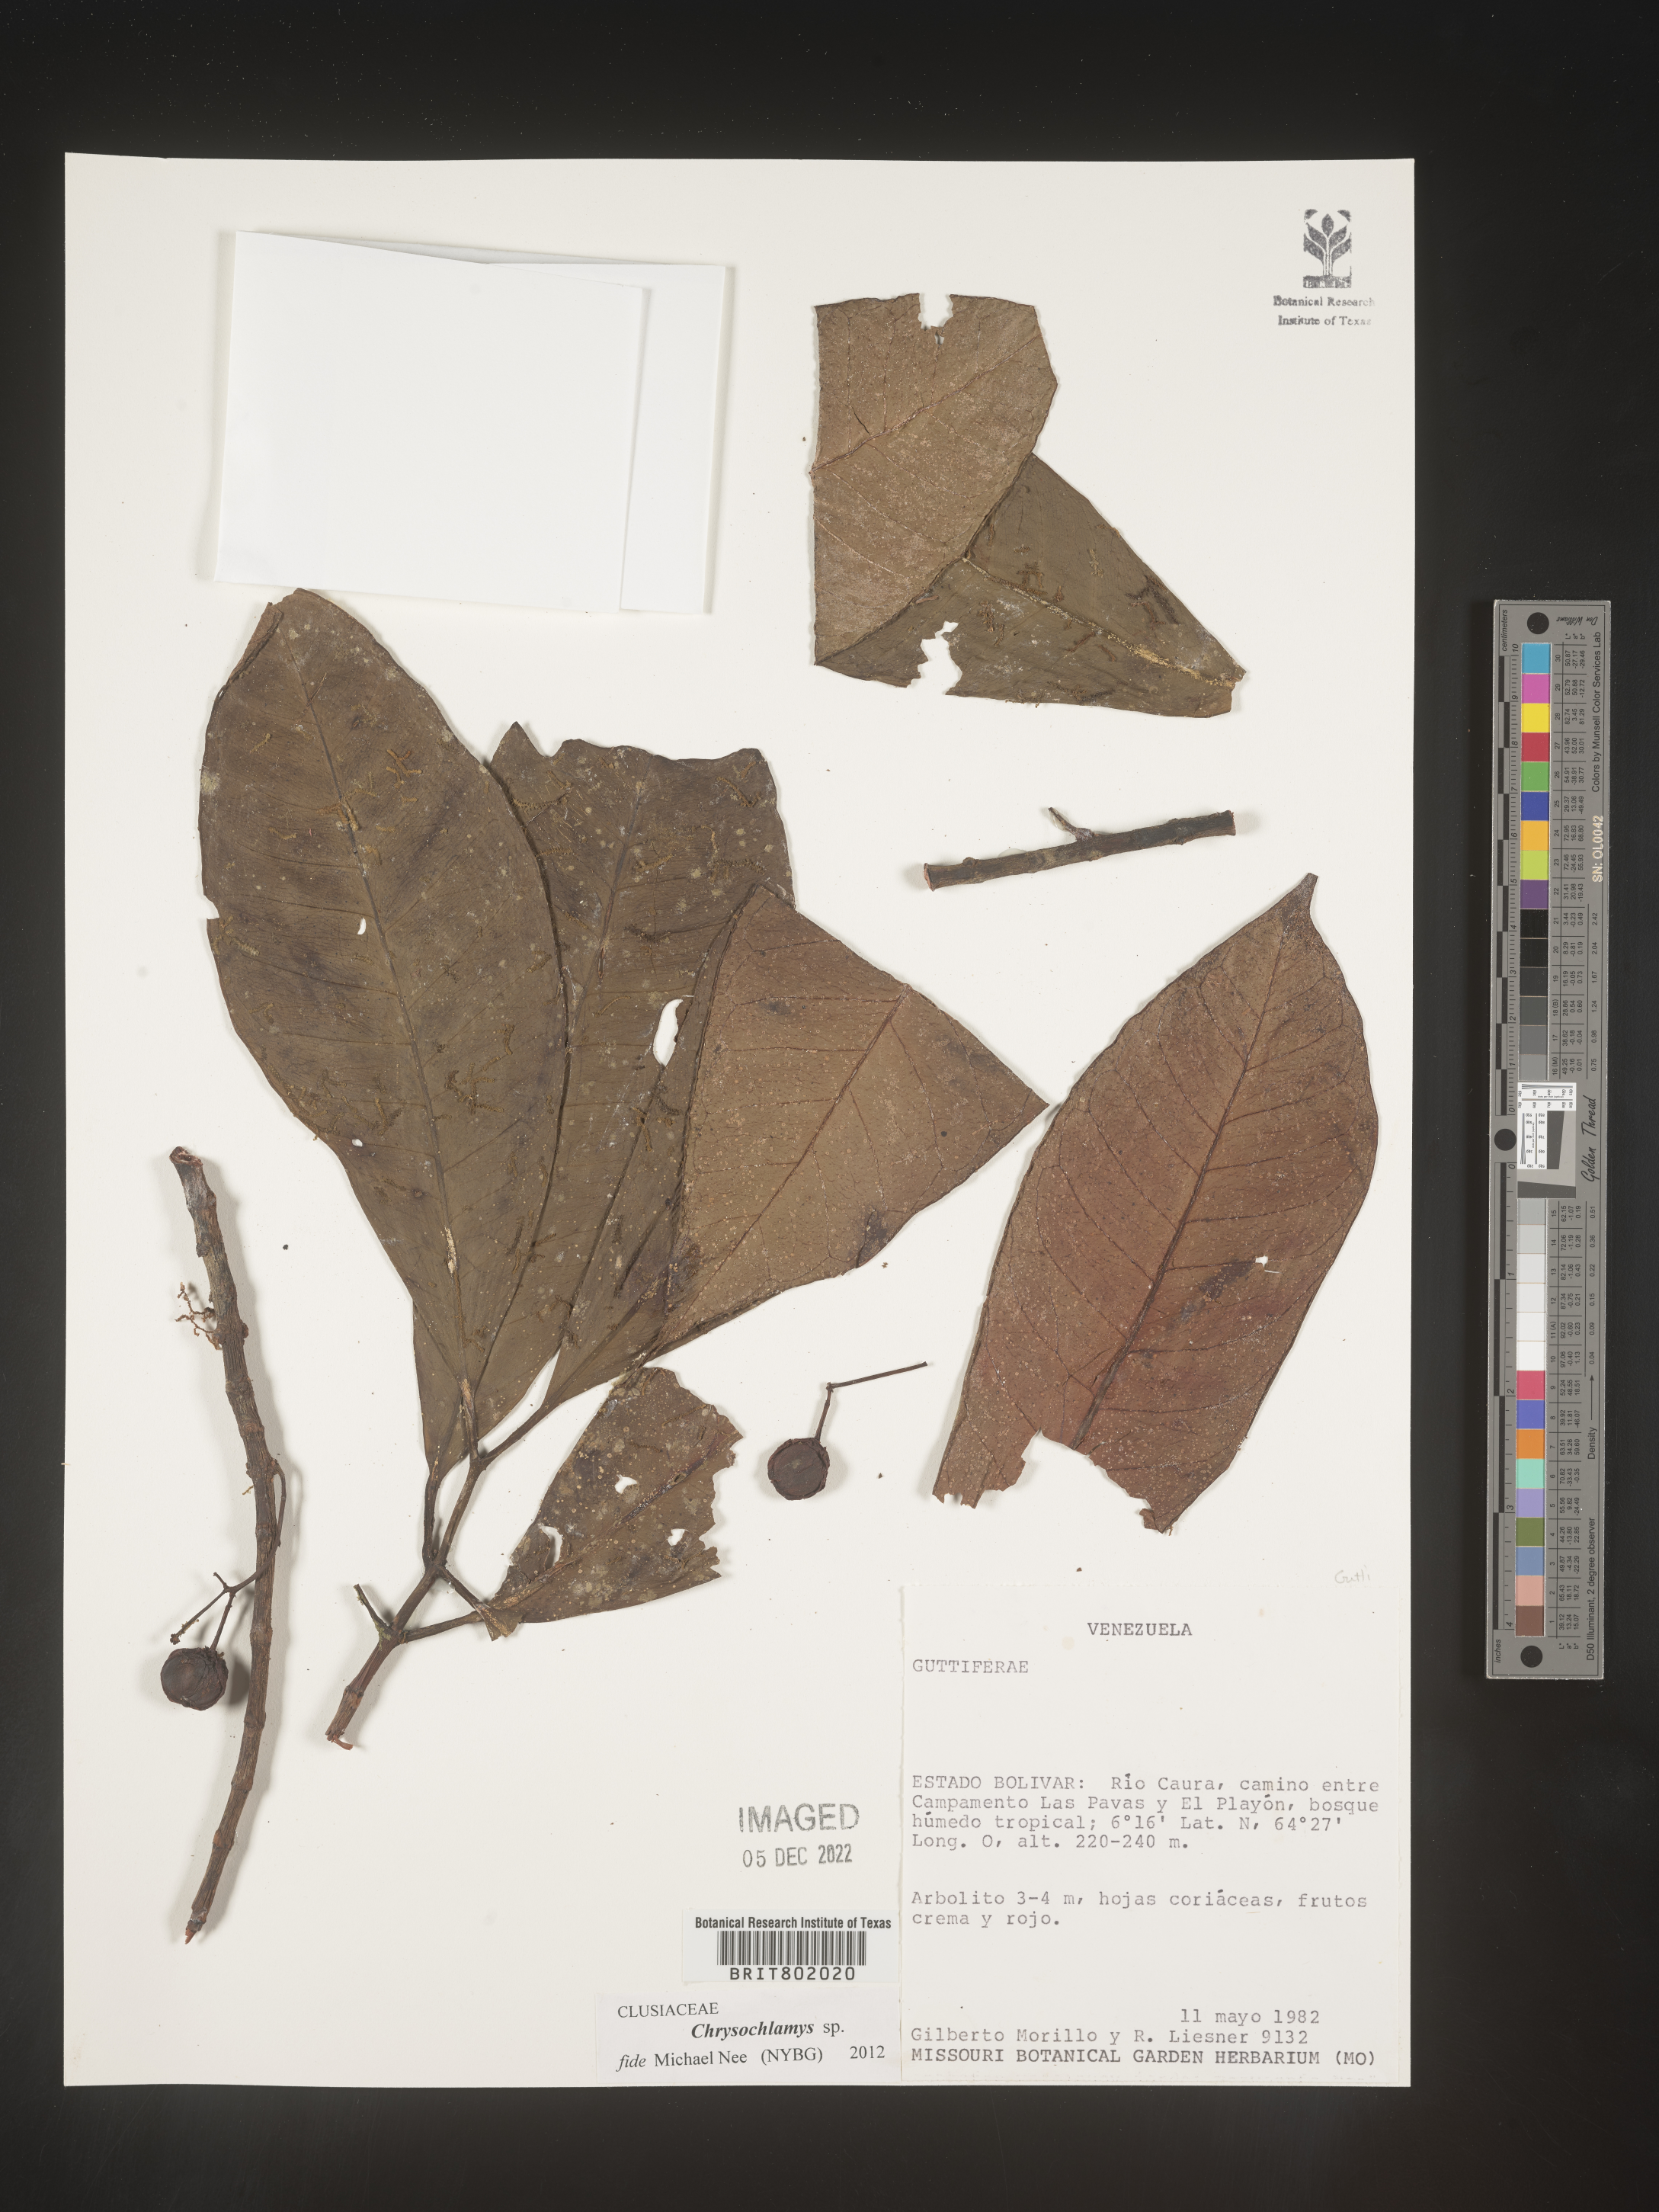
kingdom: Plantae
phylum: Tracheophyta
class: Magnoliopsida
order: Malpighiales
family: Clusiaceae
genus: Chrysochlamys
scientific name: Chrysochlamys
